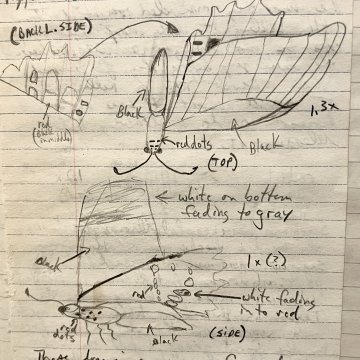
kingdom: Animalia
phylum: Arthropoda
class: Insecta
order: Lepidoptera
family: Papilionidae
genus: Papilio
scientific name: Papilio anchisiades
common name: Ruby-spotted Swallowtail
